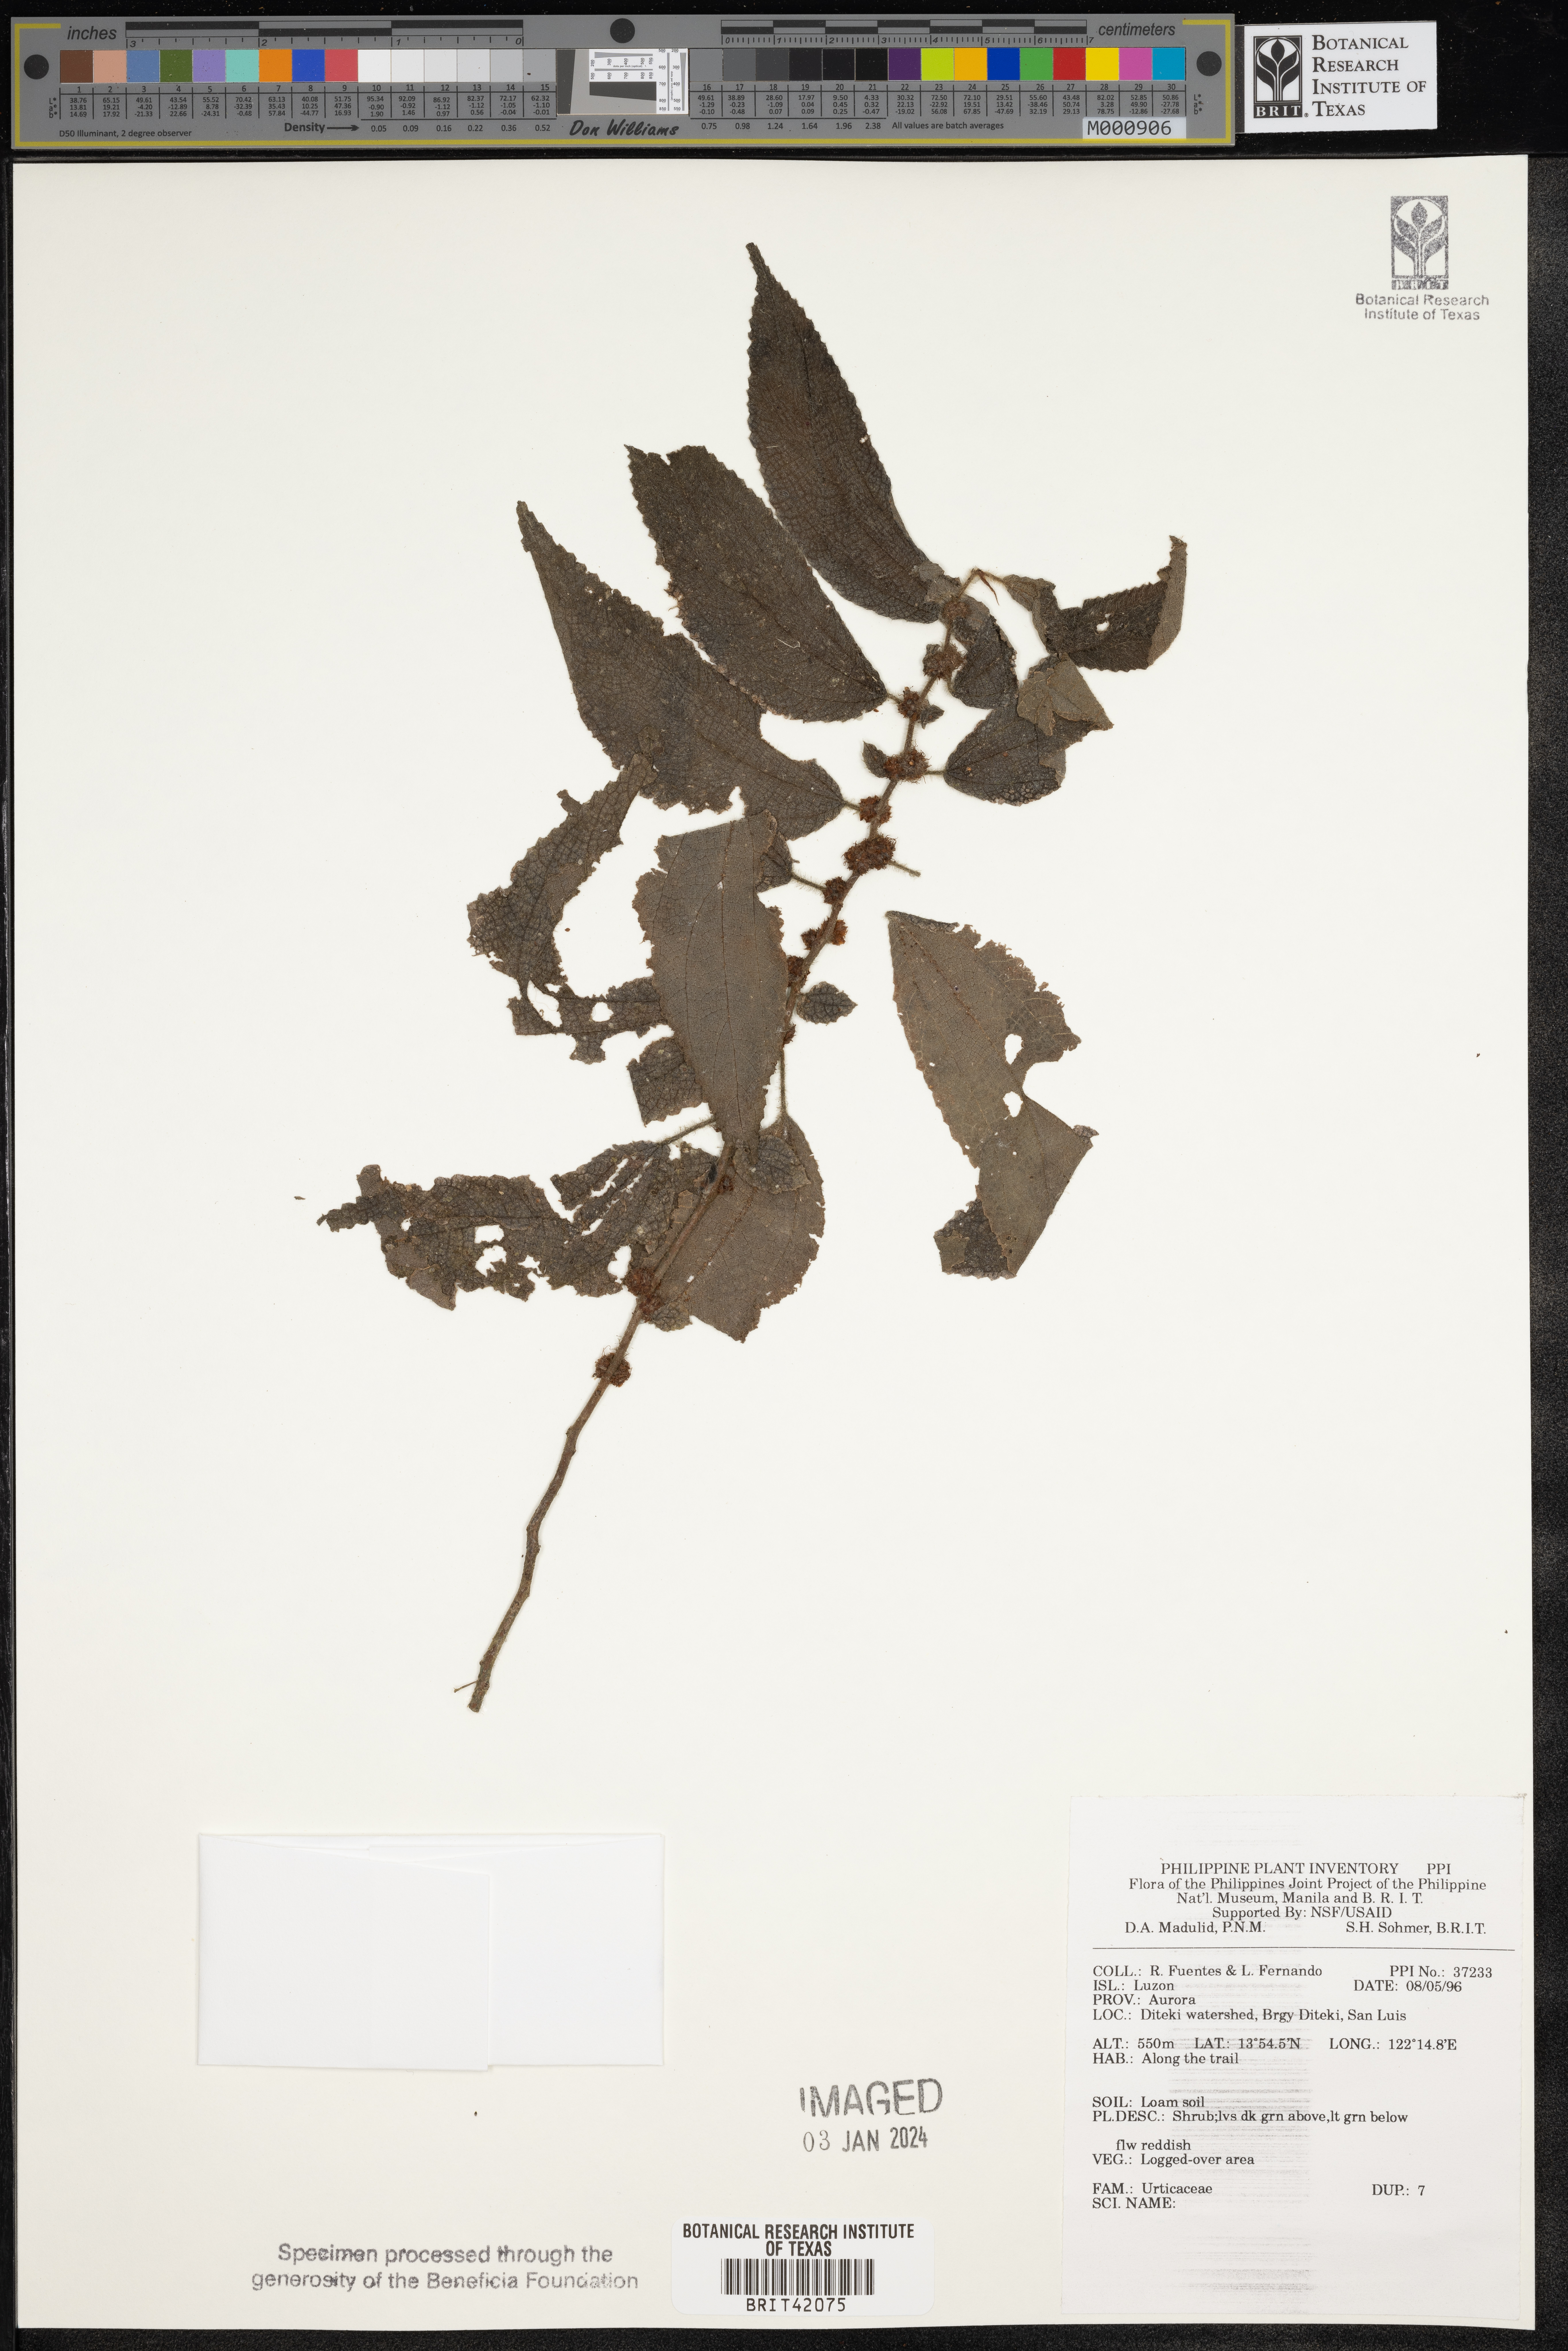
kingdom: Plantae
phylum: Tracheophyta
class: Magnoliopsida
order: Rosales
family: Urticaceae
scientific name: Urticaceae
